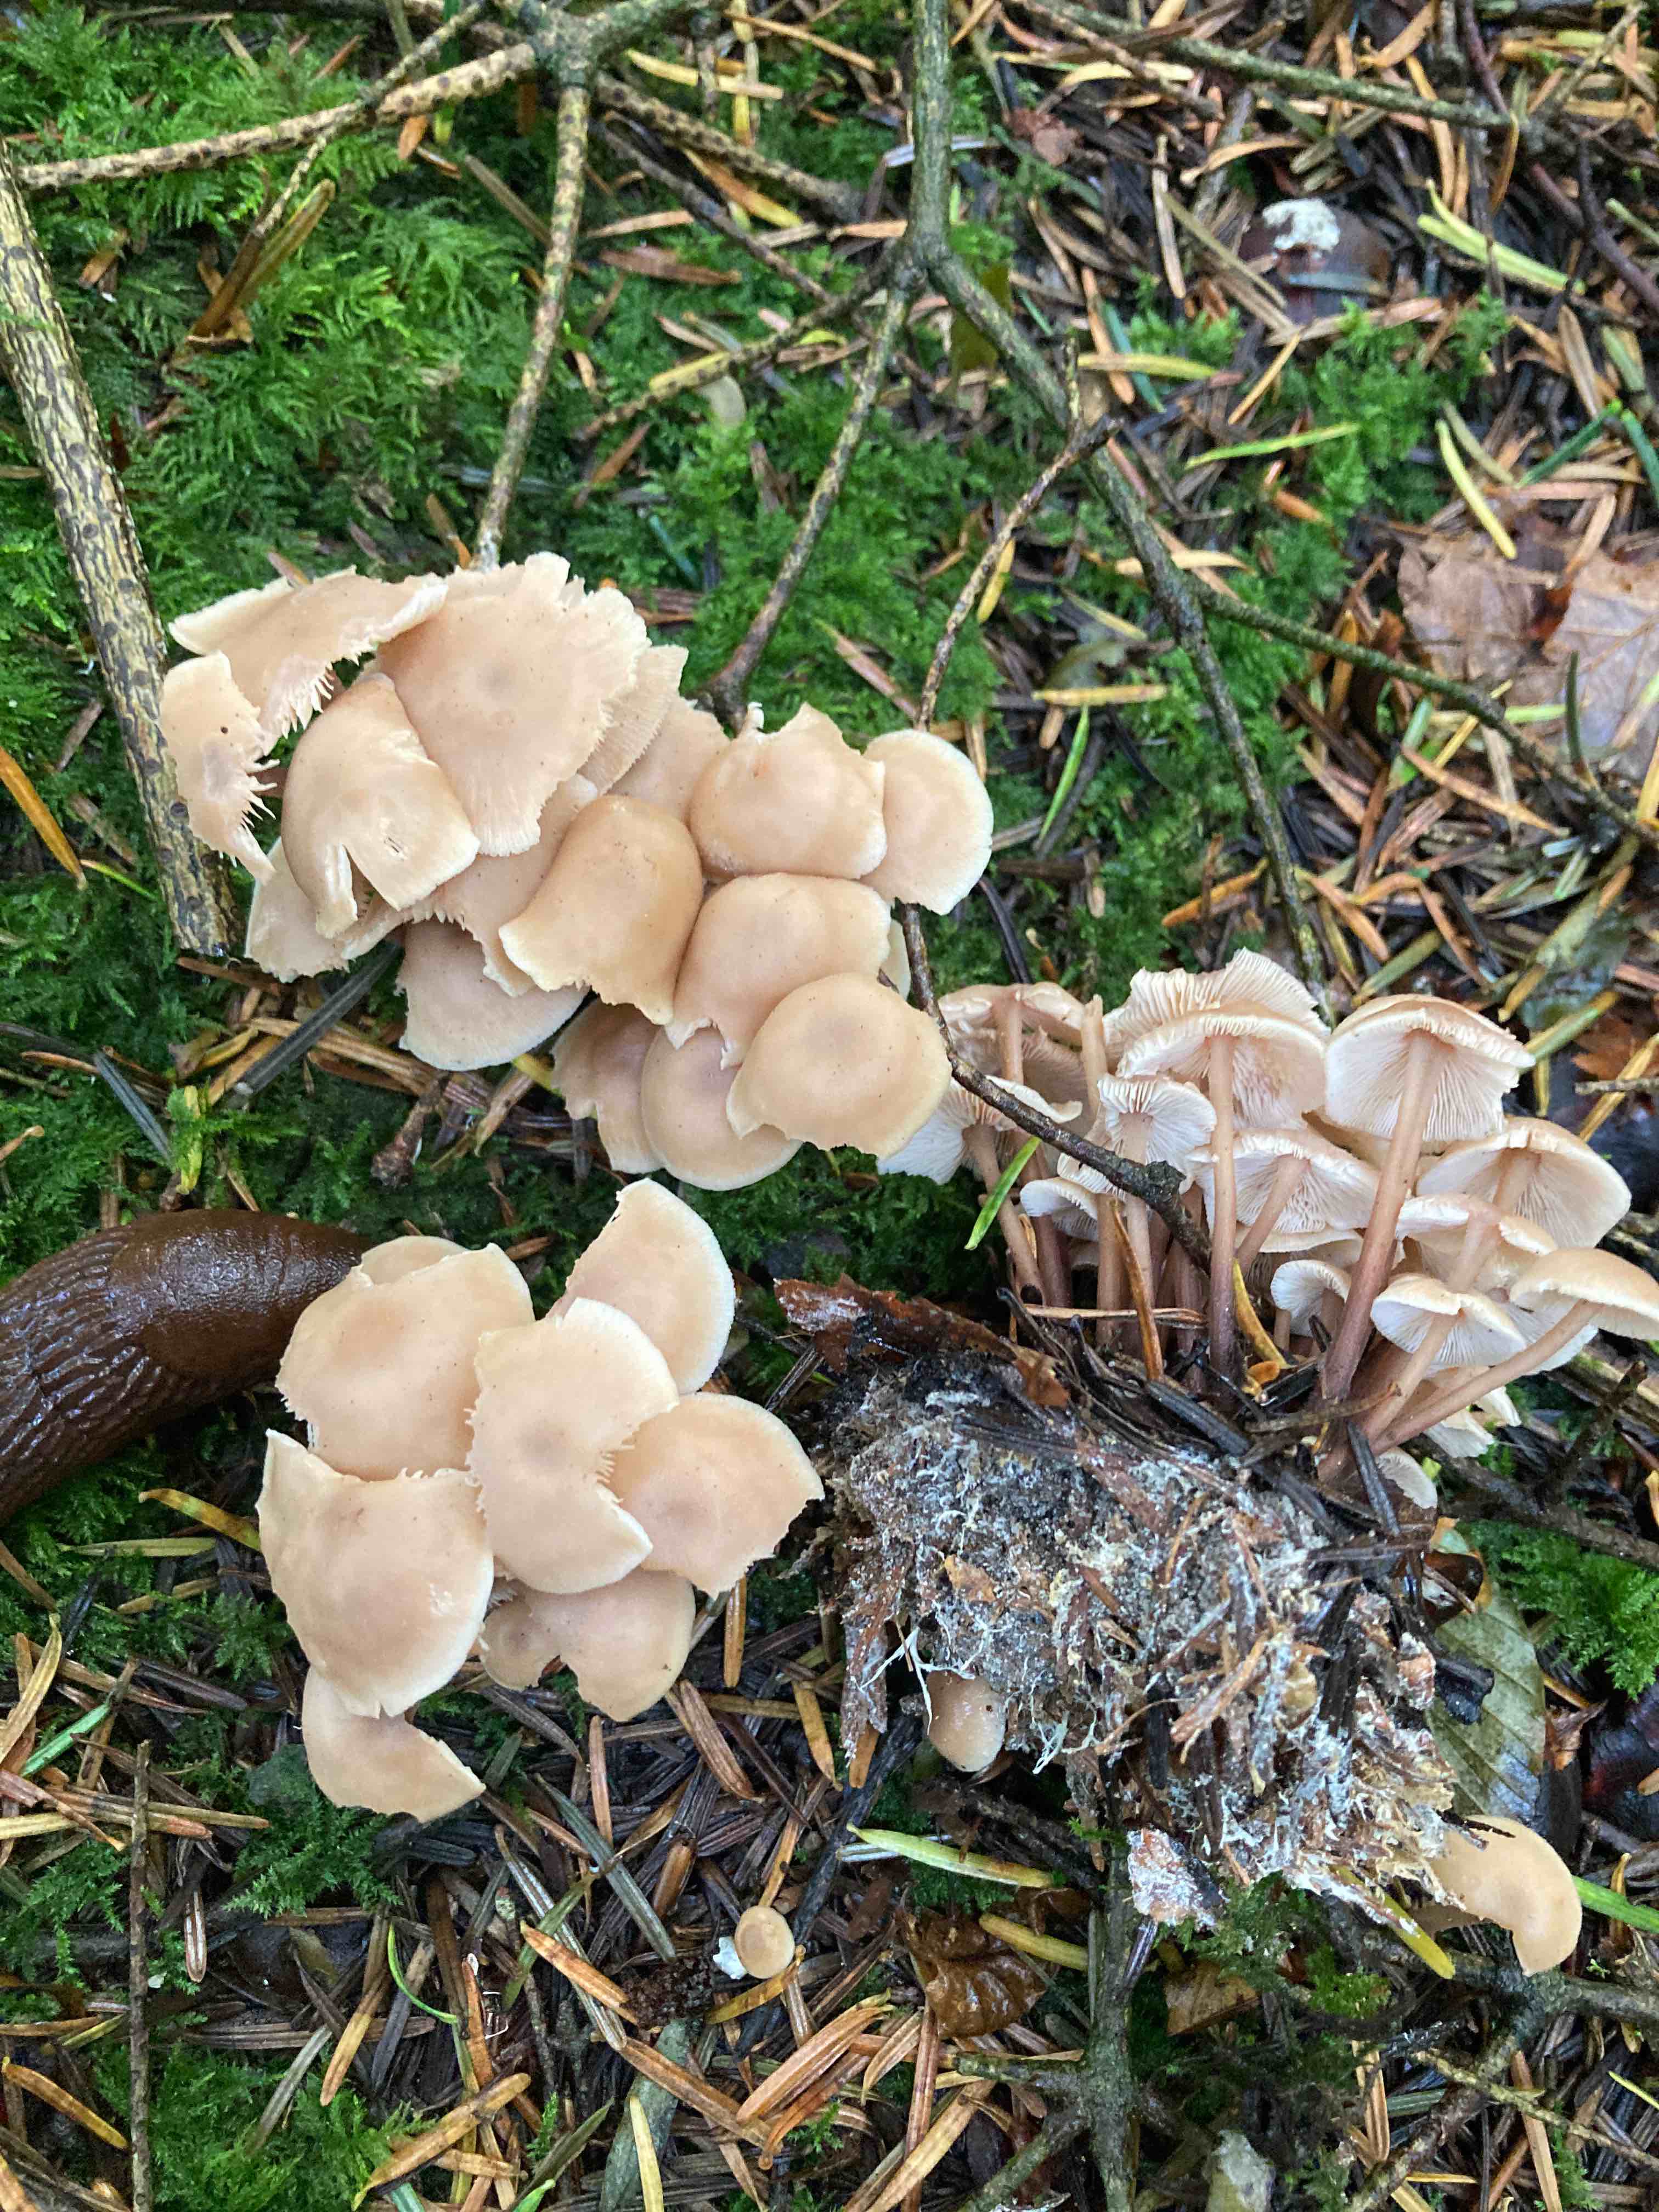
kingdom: Fungi
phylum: Basidiomycota
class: Agaricomycetes
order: Agaricales
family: Omphalotaceae
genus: Collybiopsis
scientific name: Collybiopsis confluens
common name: knippe-fladhat
